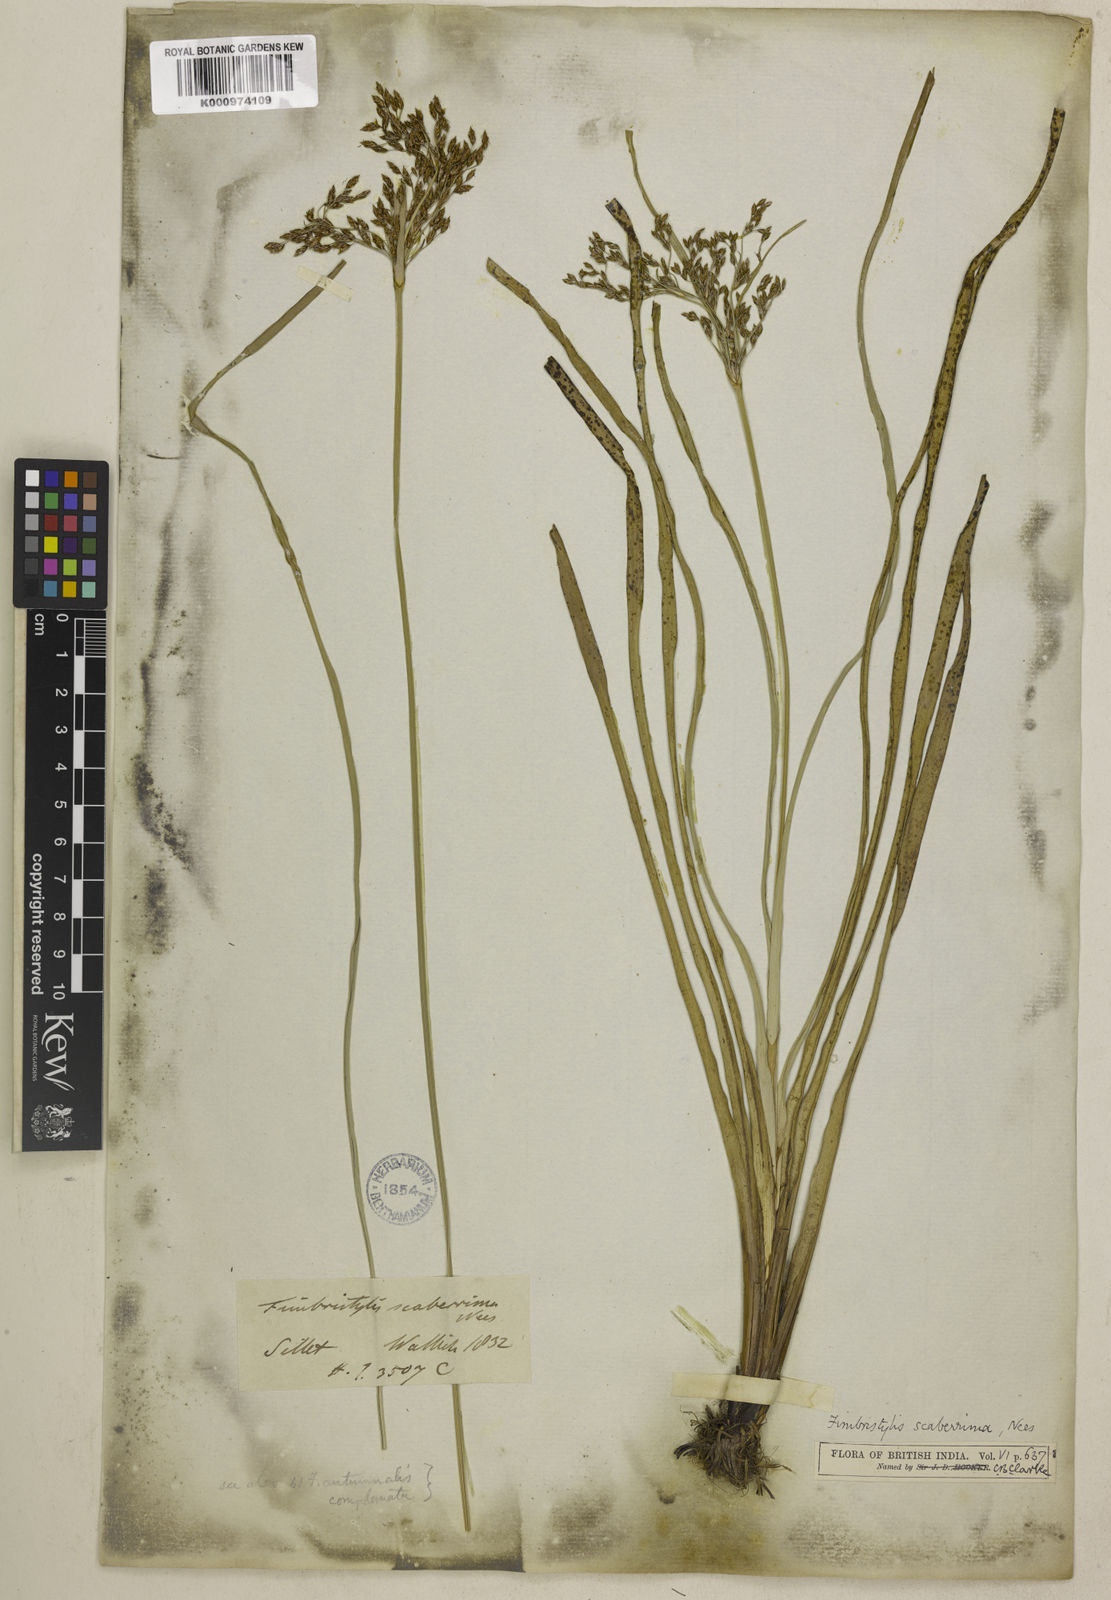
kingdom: Plantae
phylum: Tracheophyta
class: Liliopsida
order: Poales
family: Cyperaceae
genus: Fimbristylis
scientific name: Fimbristylis scaberrima
